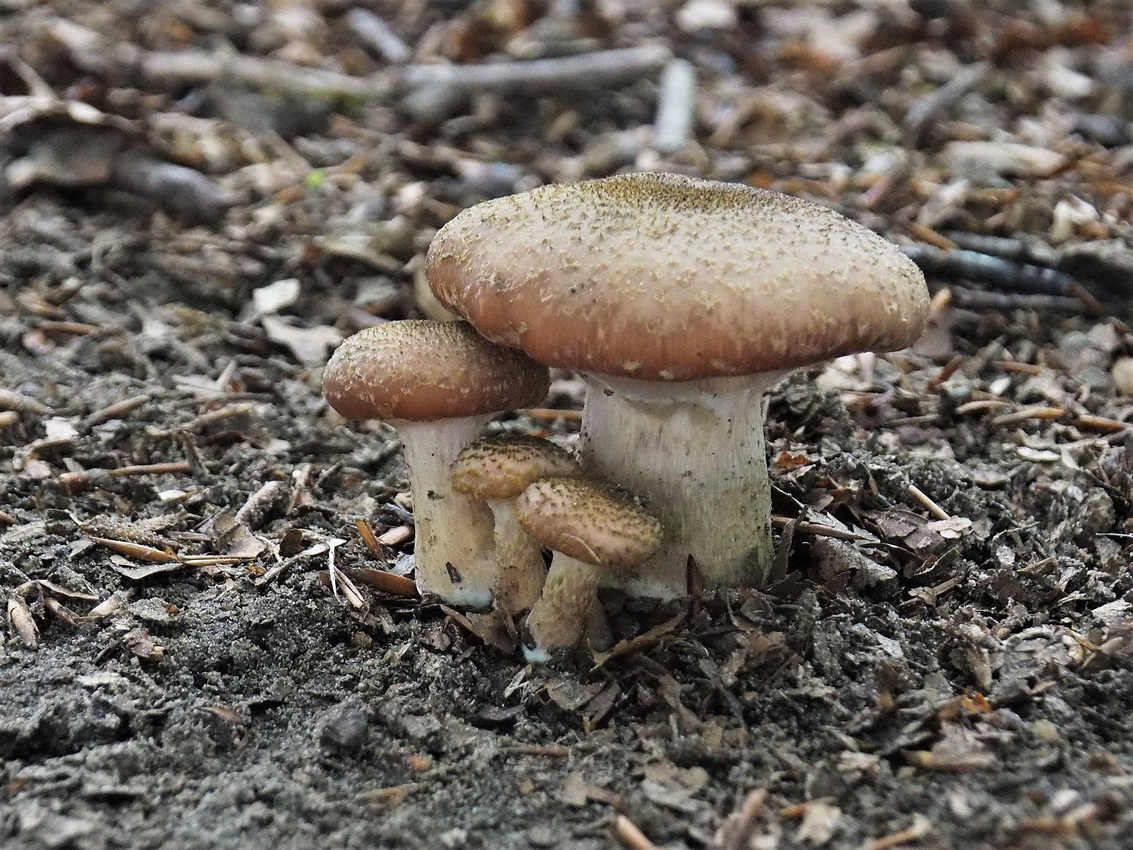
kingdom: Fungi
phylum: Basidiomycota
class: Agaricomycetes
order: Agaricales
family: Physalacriaceae
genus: Armillaria
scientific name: Armillaria lutea
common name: køllestokket honningsvamp
